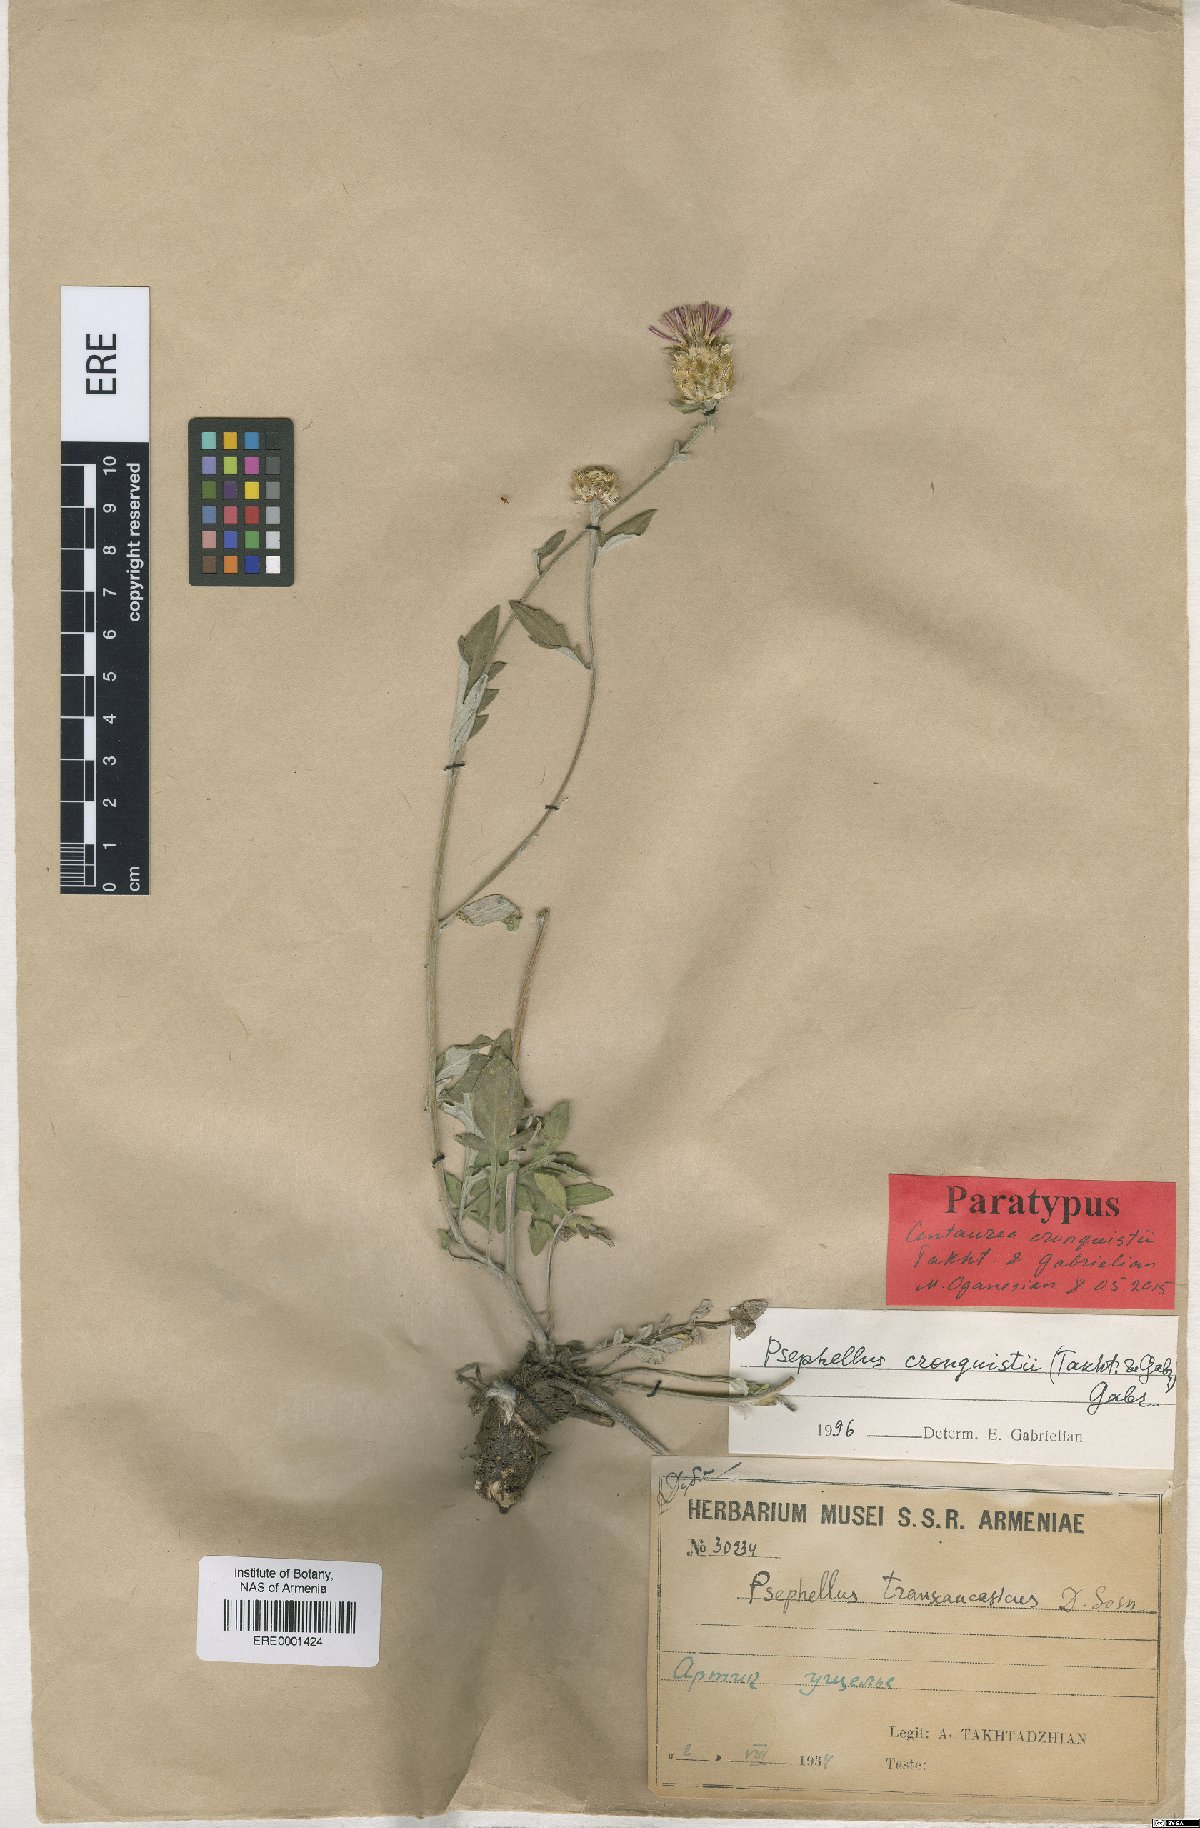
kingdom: Plantae
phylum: Tracheophyta
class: Magnoliopsida
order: Asterales
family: Asteraceae
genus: Psephellus
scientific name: Psephellus cronquistii
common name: Cronquists's cornflower
